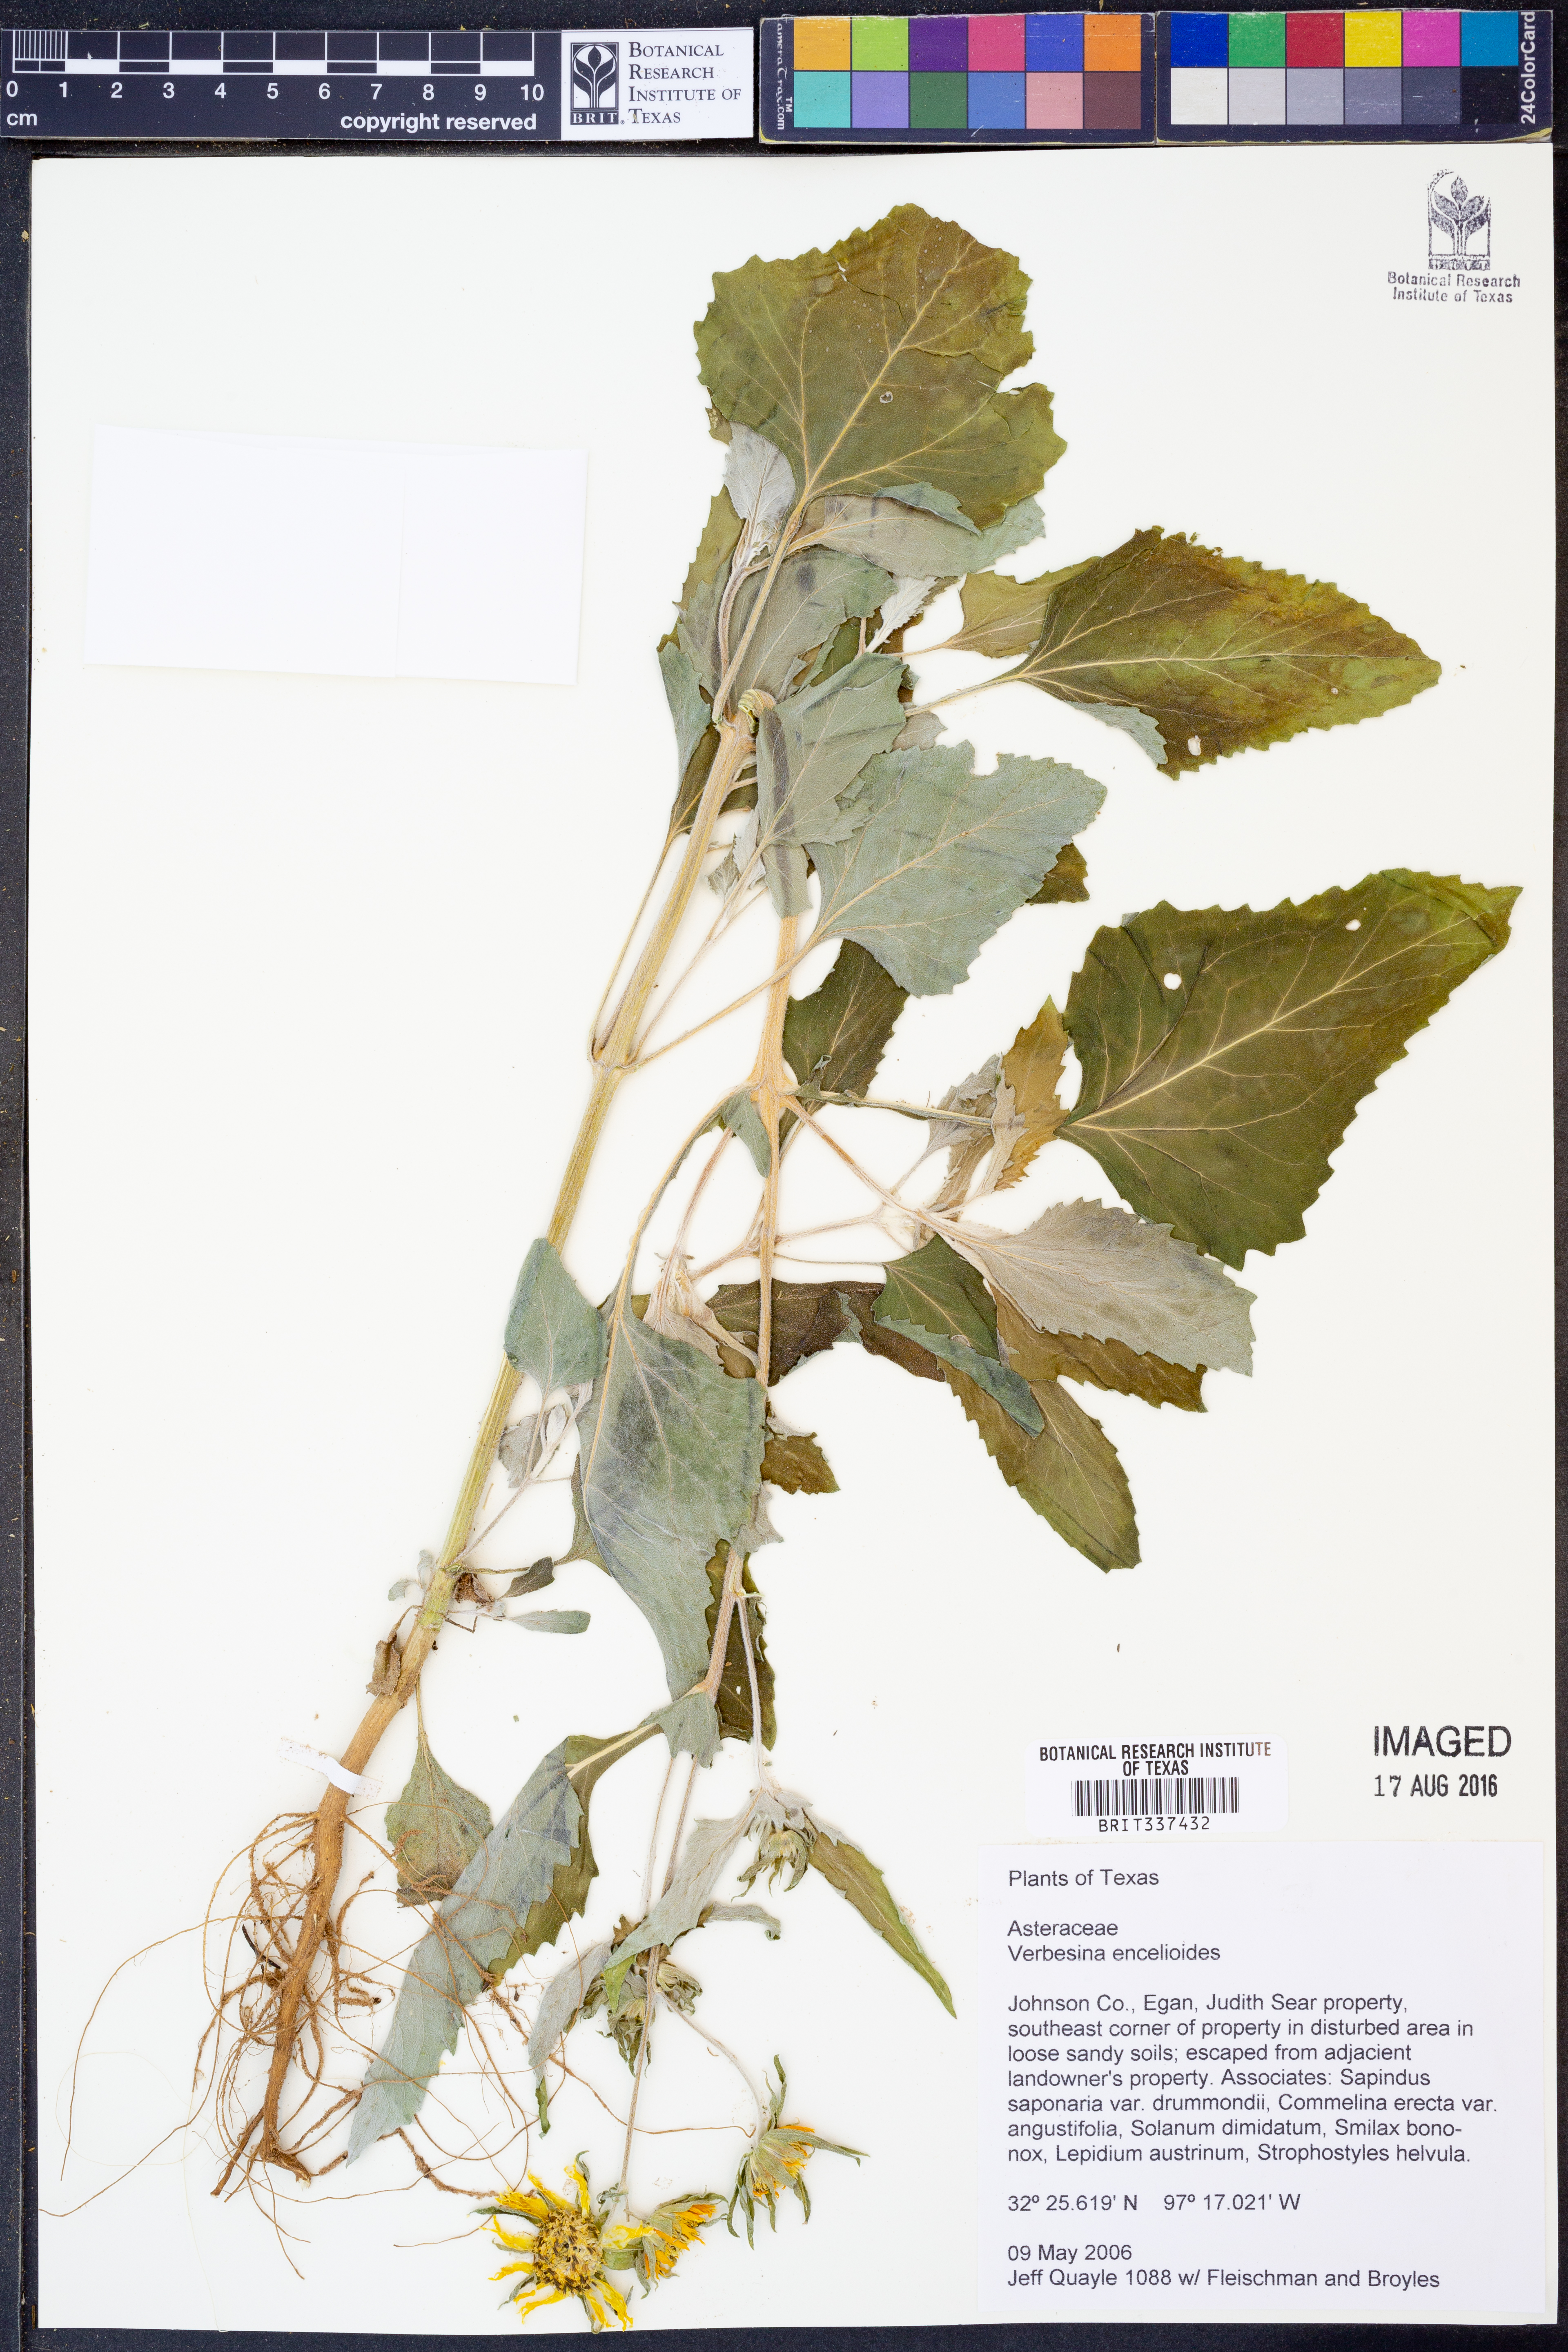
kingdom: Plantae
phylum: Tracheophyta
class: Magnoliopsida
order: Asterales
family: Asteraceae
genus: Verbesina
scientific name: Verbesina encelioides
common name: Golden crownbeard
